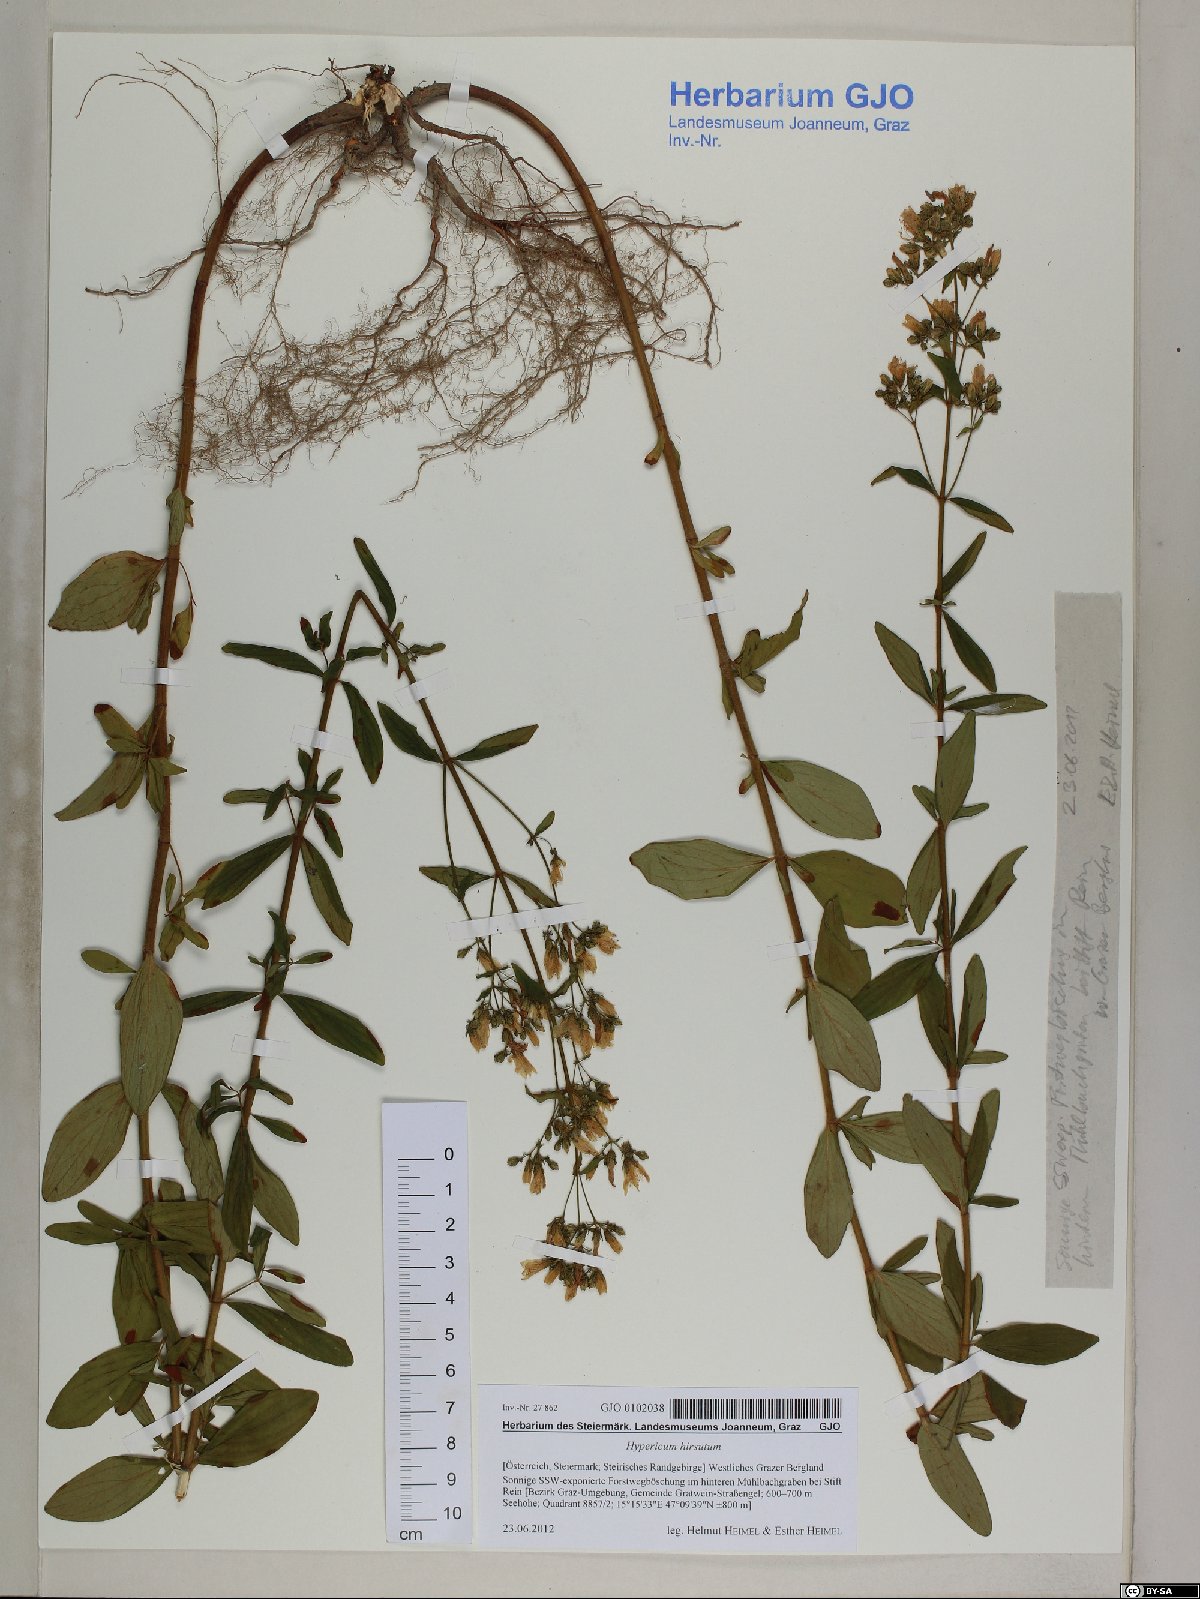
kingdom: Plantae
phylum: Tracheophyta
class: Magnoliopsida
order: Malpighiales
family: Hypericaceae
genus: Hypericum
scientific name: Hypericum hirsutum
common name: Hairy st. john's-wort
